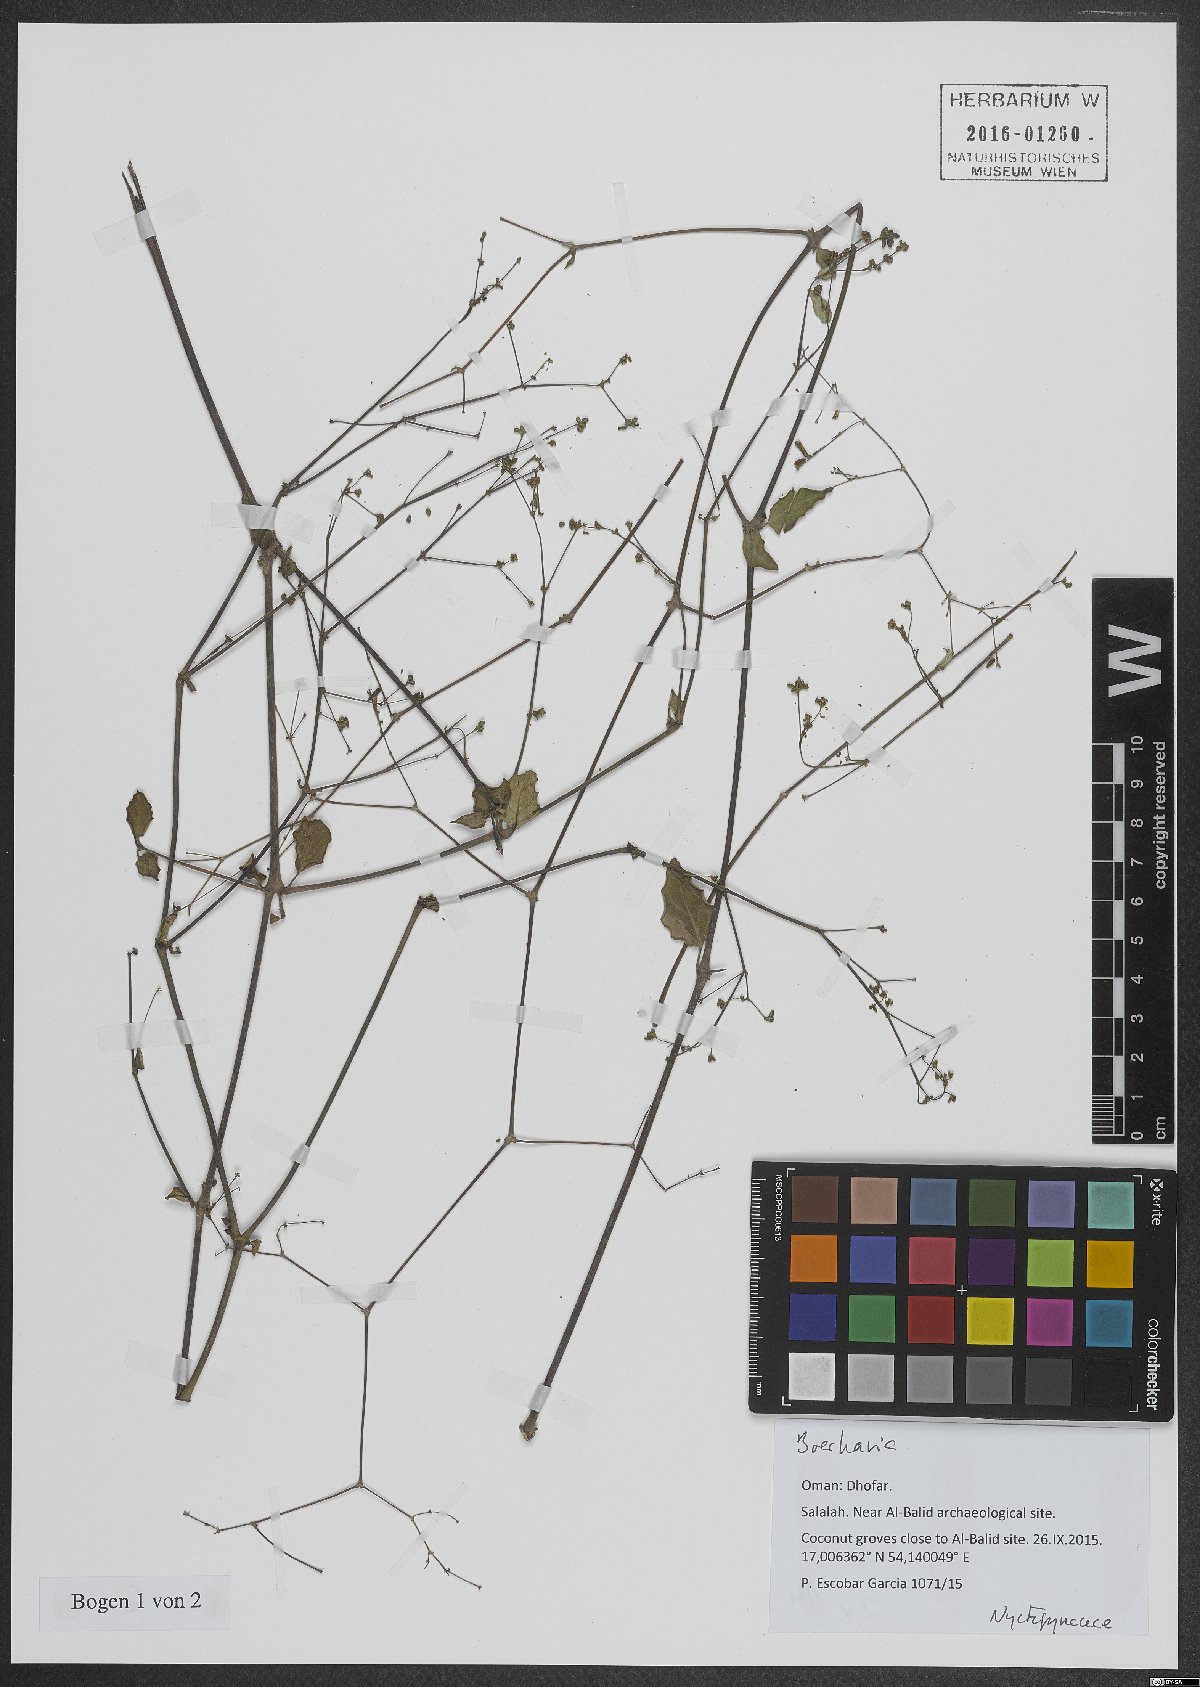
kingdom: Plantae
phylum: Tracheophyta
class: Magnoliopsida
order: Caryophyllales
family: Nyctaginaceae
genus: Boerhavia
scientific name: Boerhavia
